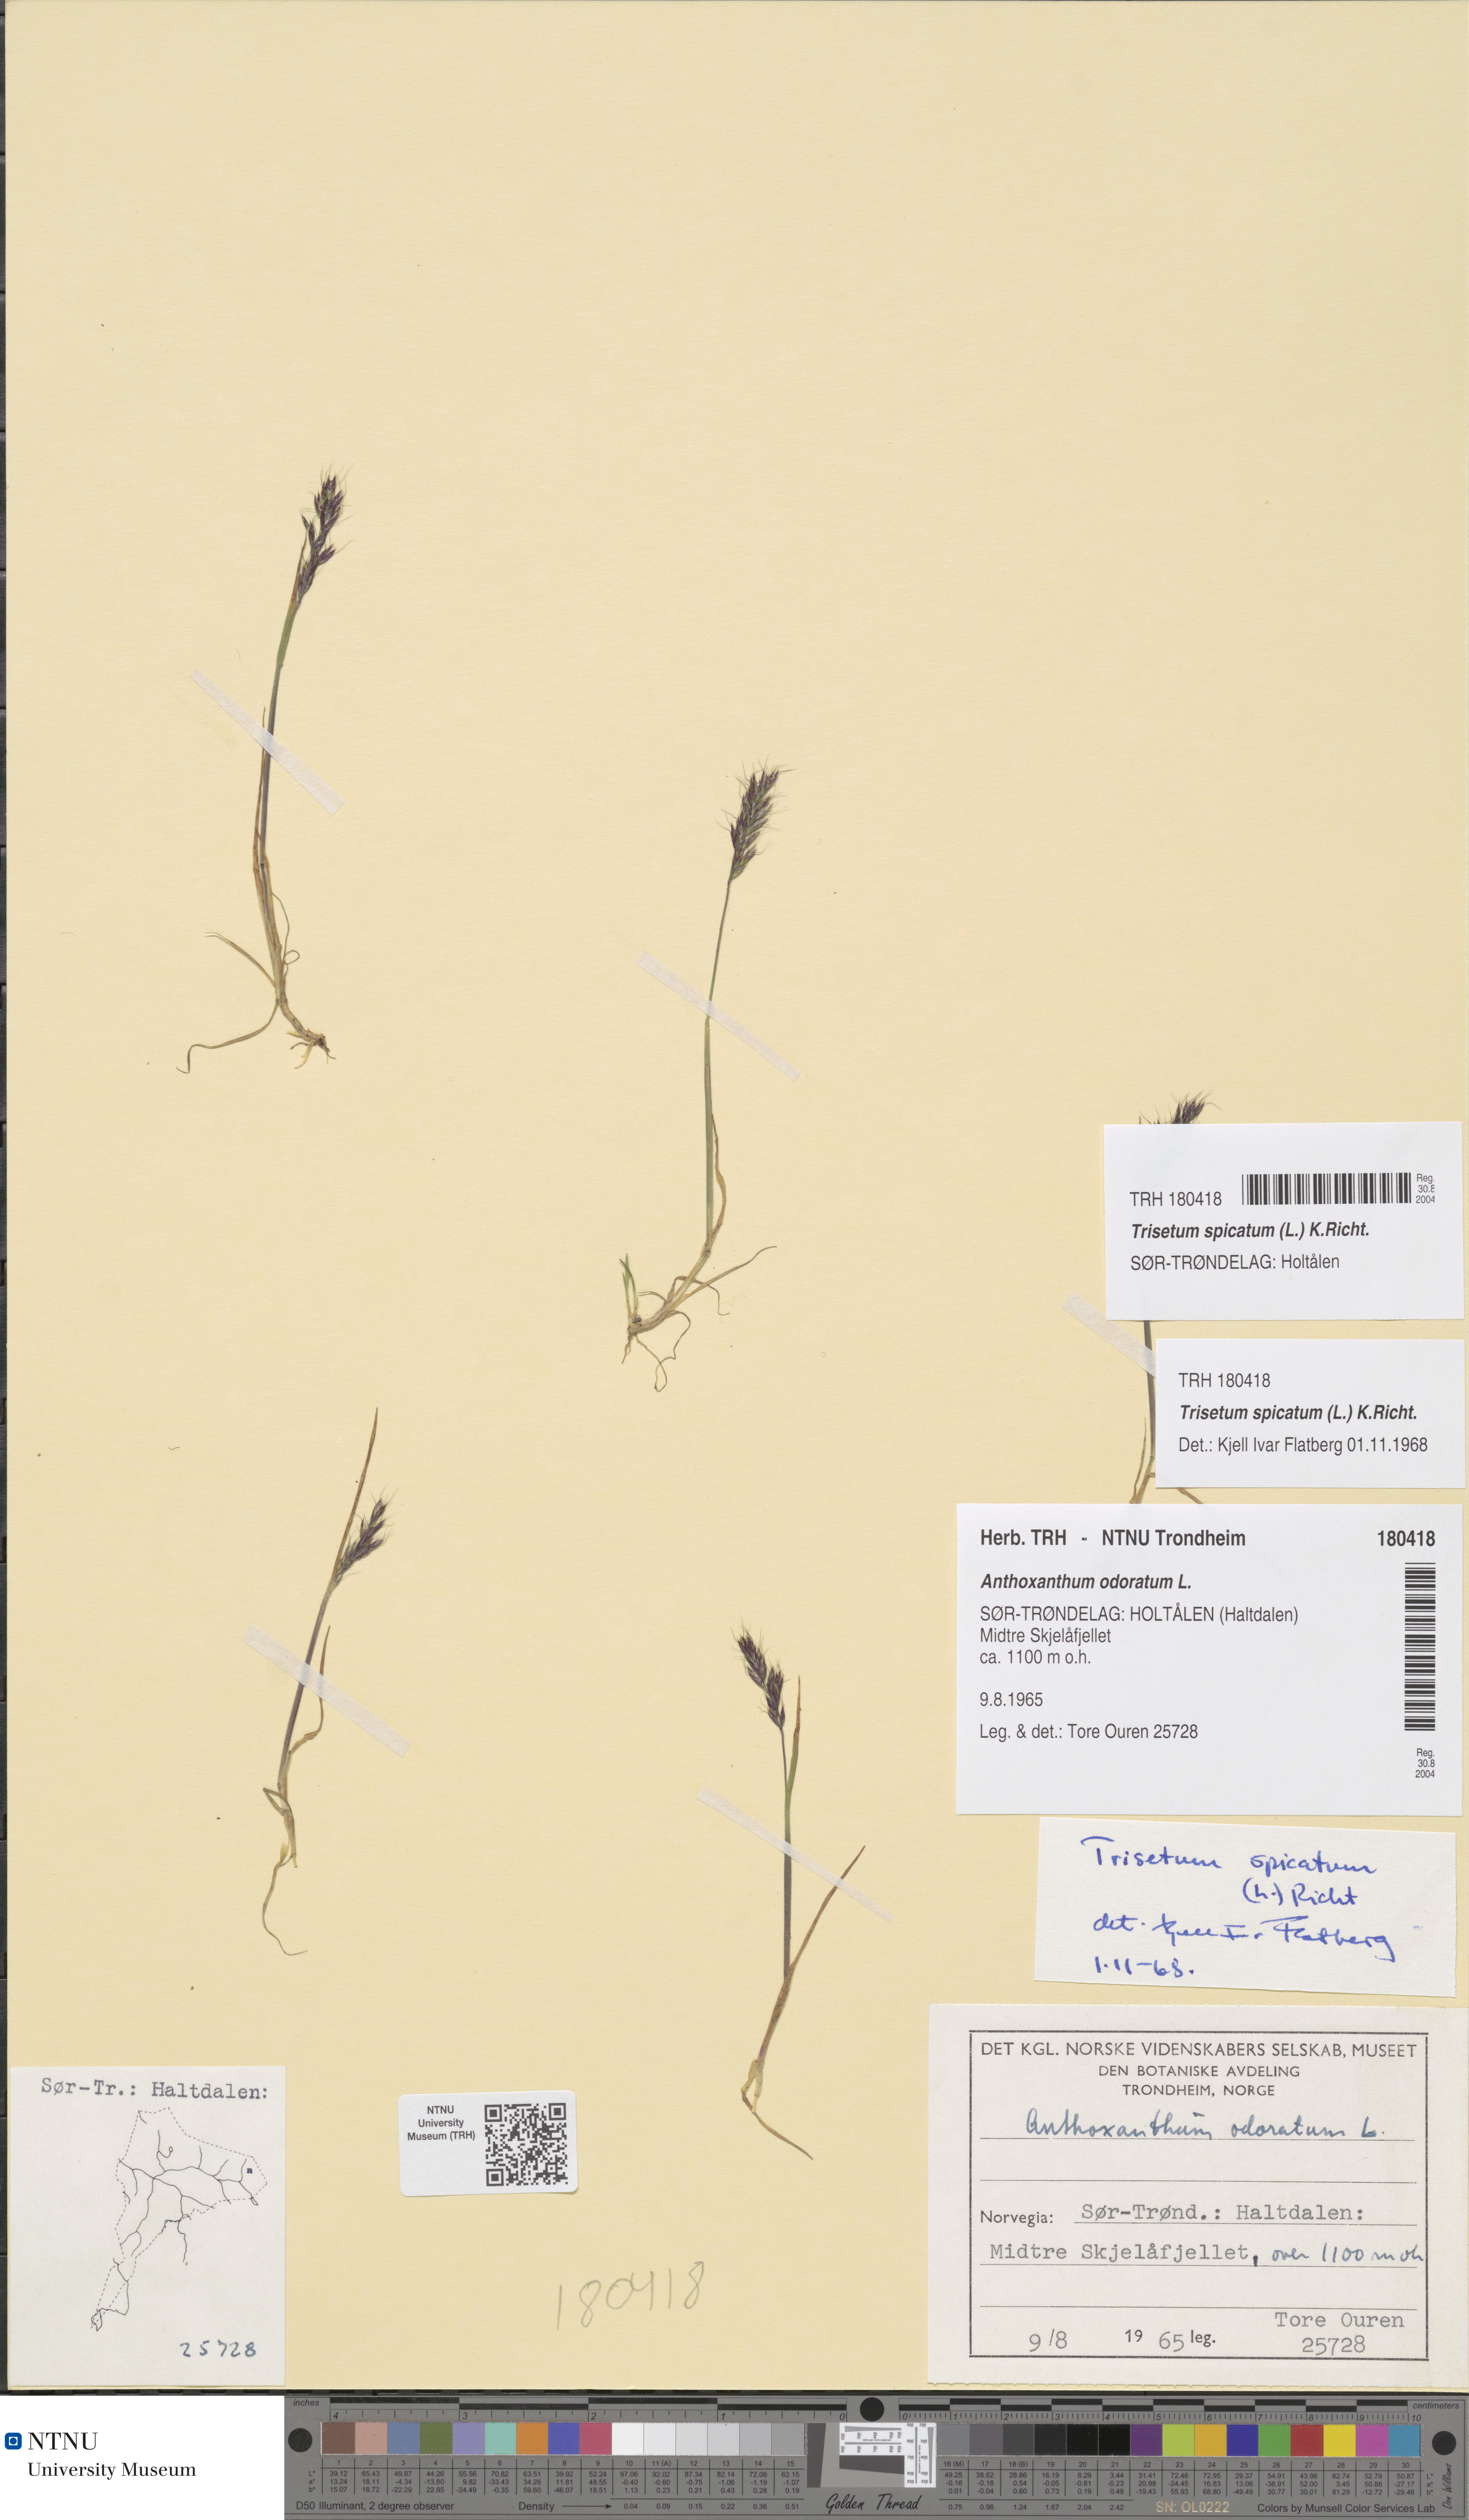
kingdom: Plantae
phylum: Tracheophyta
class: Liliopsida
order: Poales
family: Poaceae
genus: Koeleria
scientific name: Koeleria spicata
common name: Mountain trisetum
